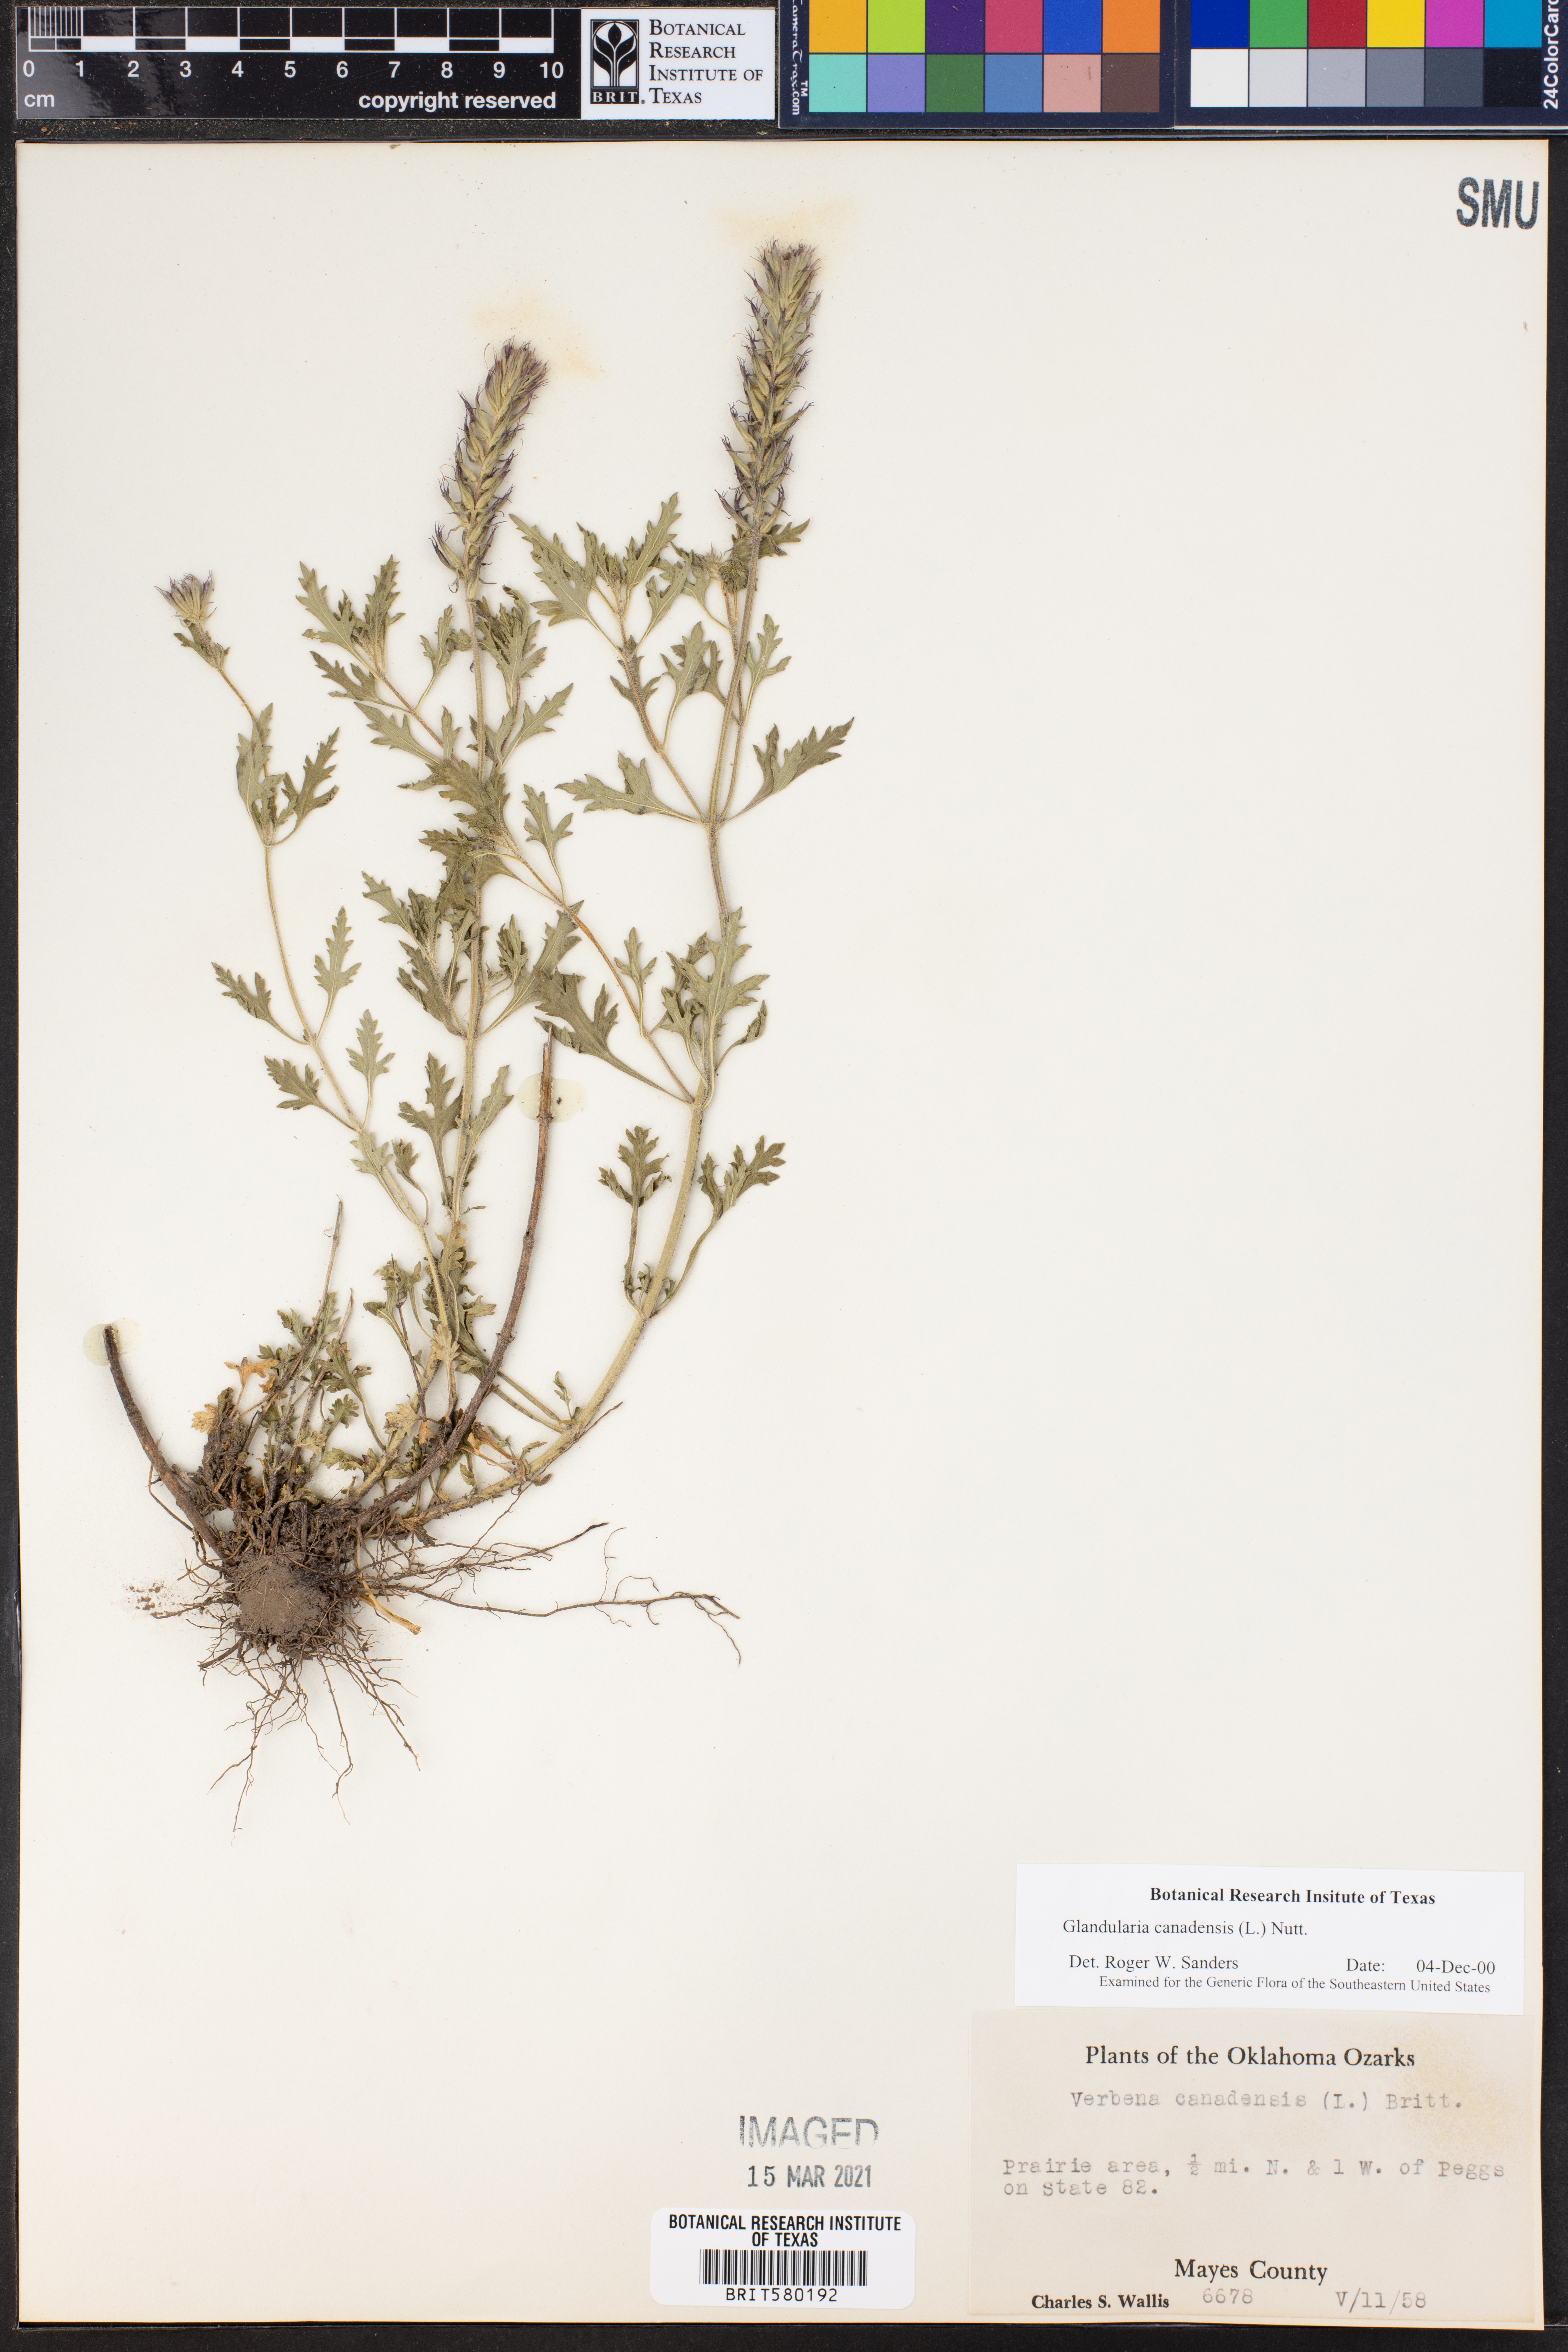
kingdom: Plantae
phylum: Tracheophyta
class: Magnoliopsida
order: Lamiales
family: Verbenaceae
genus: Verbena
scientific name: Verbena canadensis
